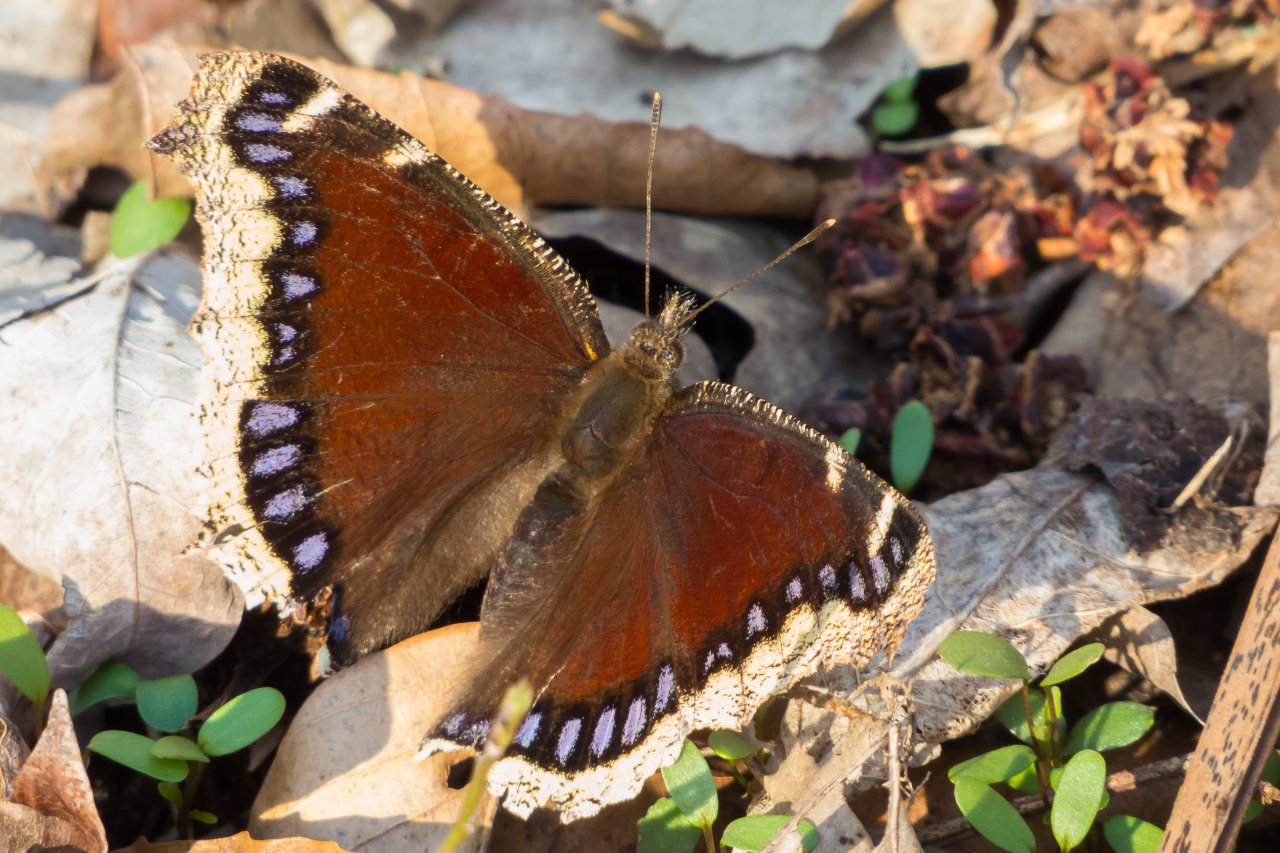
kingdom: Animalia
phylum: Arthropoda
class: Insecta
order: Lepidoptera
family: Nymphalidae
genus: Nymphalis
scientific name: Nymphalis antiopa
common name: Mourning Cloak
